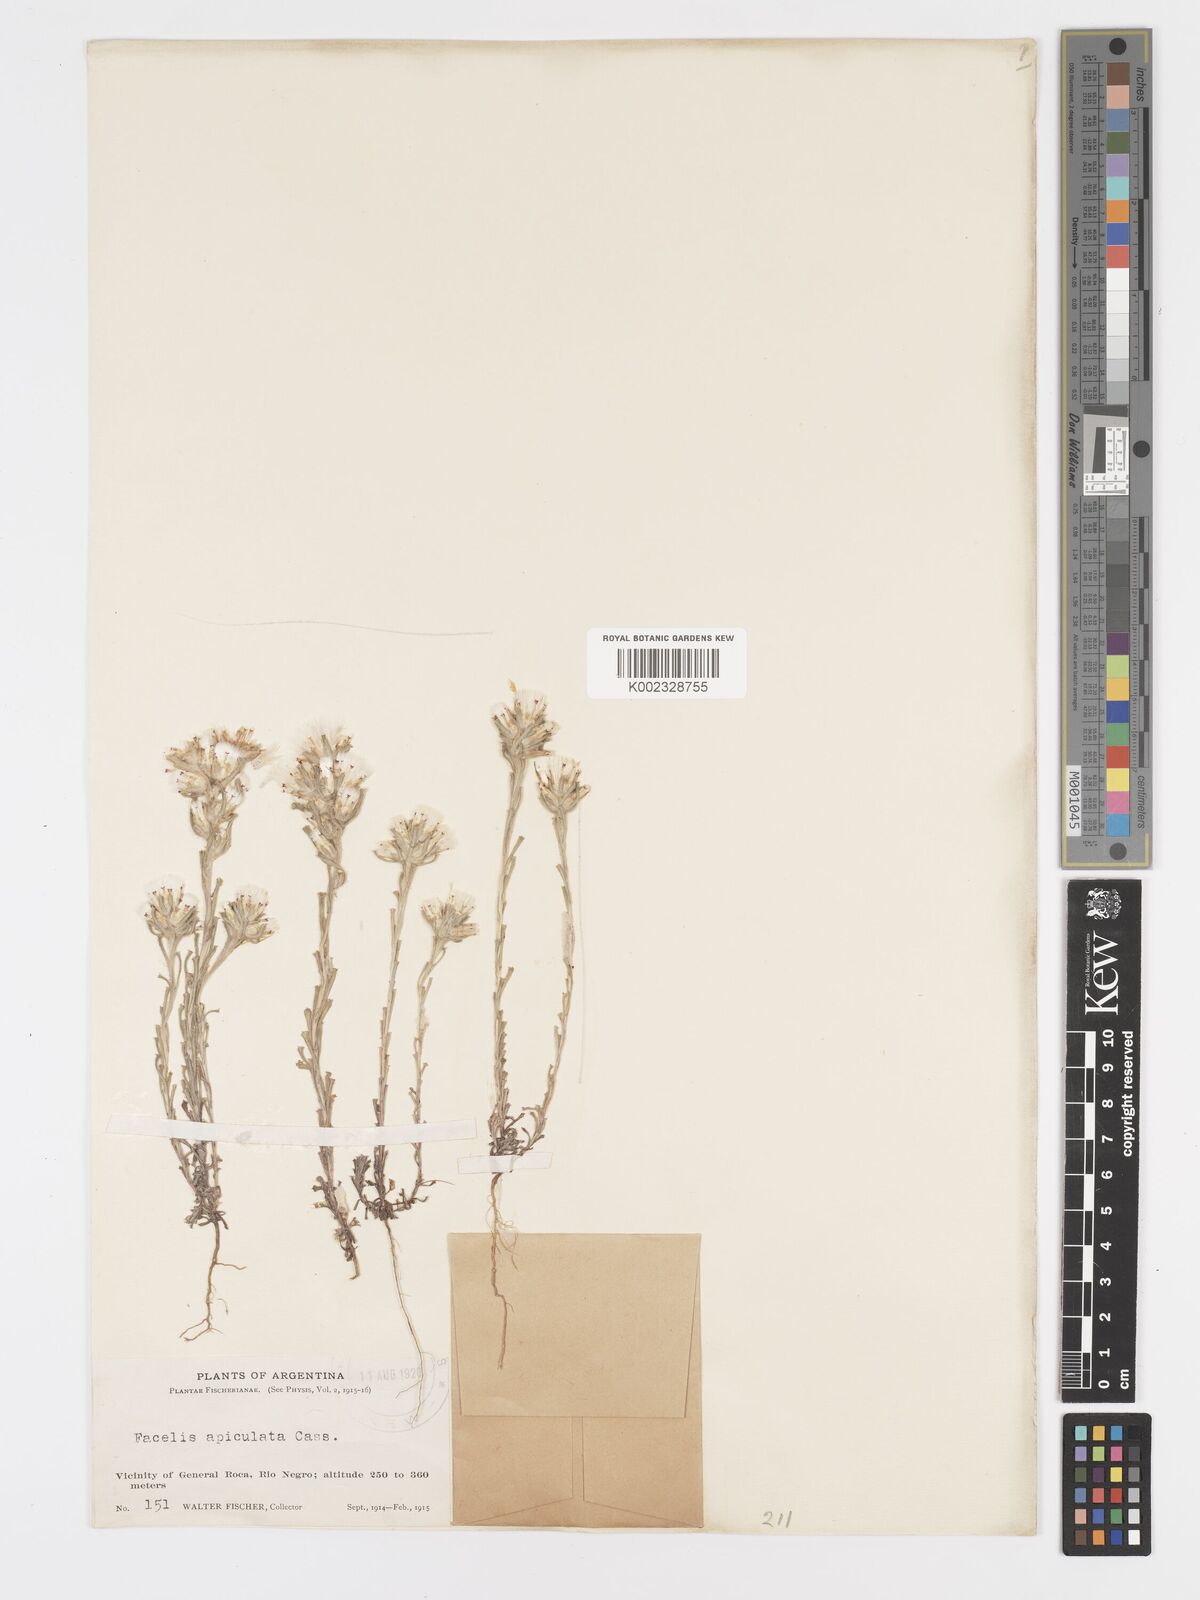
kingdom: Plantae
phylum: Tracheophyta
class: Magnoliopsida
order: Asterales
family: Asteraceae
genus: Facelis
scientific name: Facelis retusa
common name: Annual trampweed
